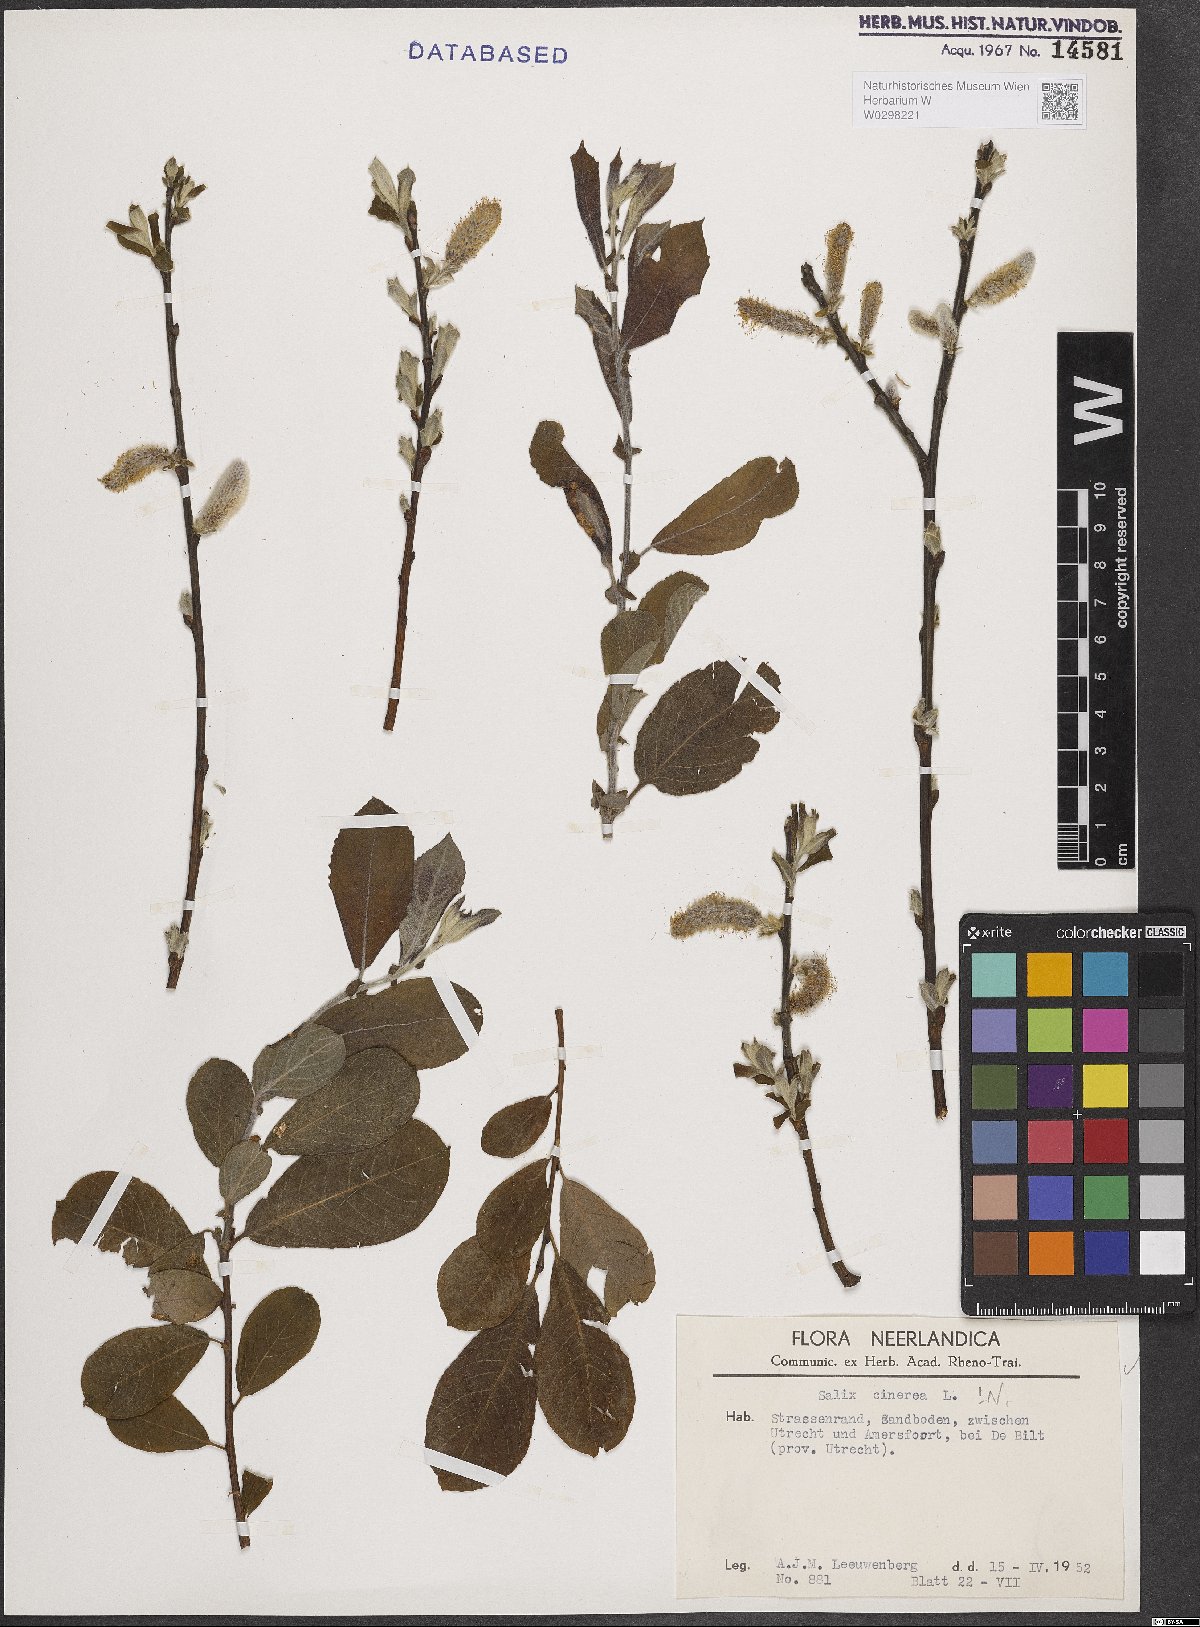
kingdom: Plantae
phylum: Tracheophyta
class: Magnoliopsida
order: Malpighiales
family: Salicaceae
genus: Salix
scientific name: Salix cinerea
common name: Common sallow
